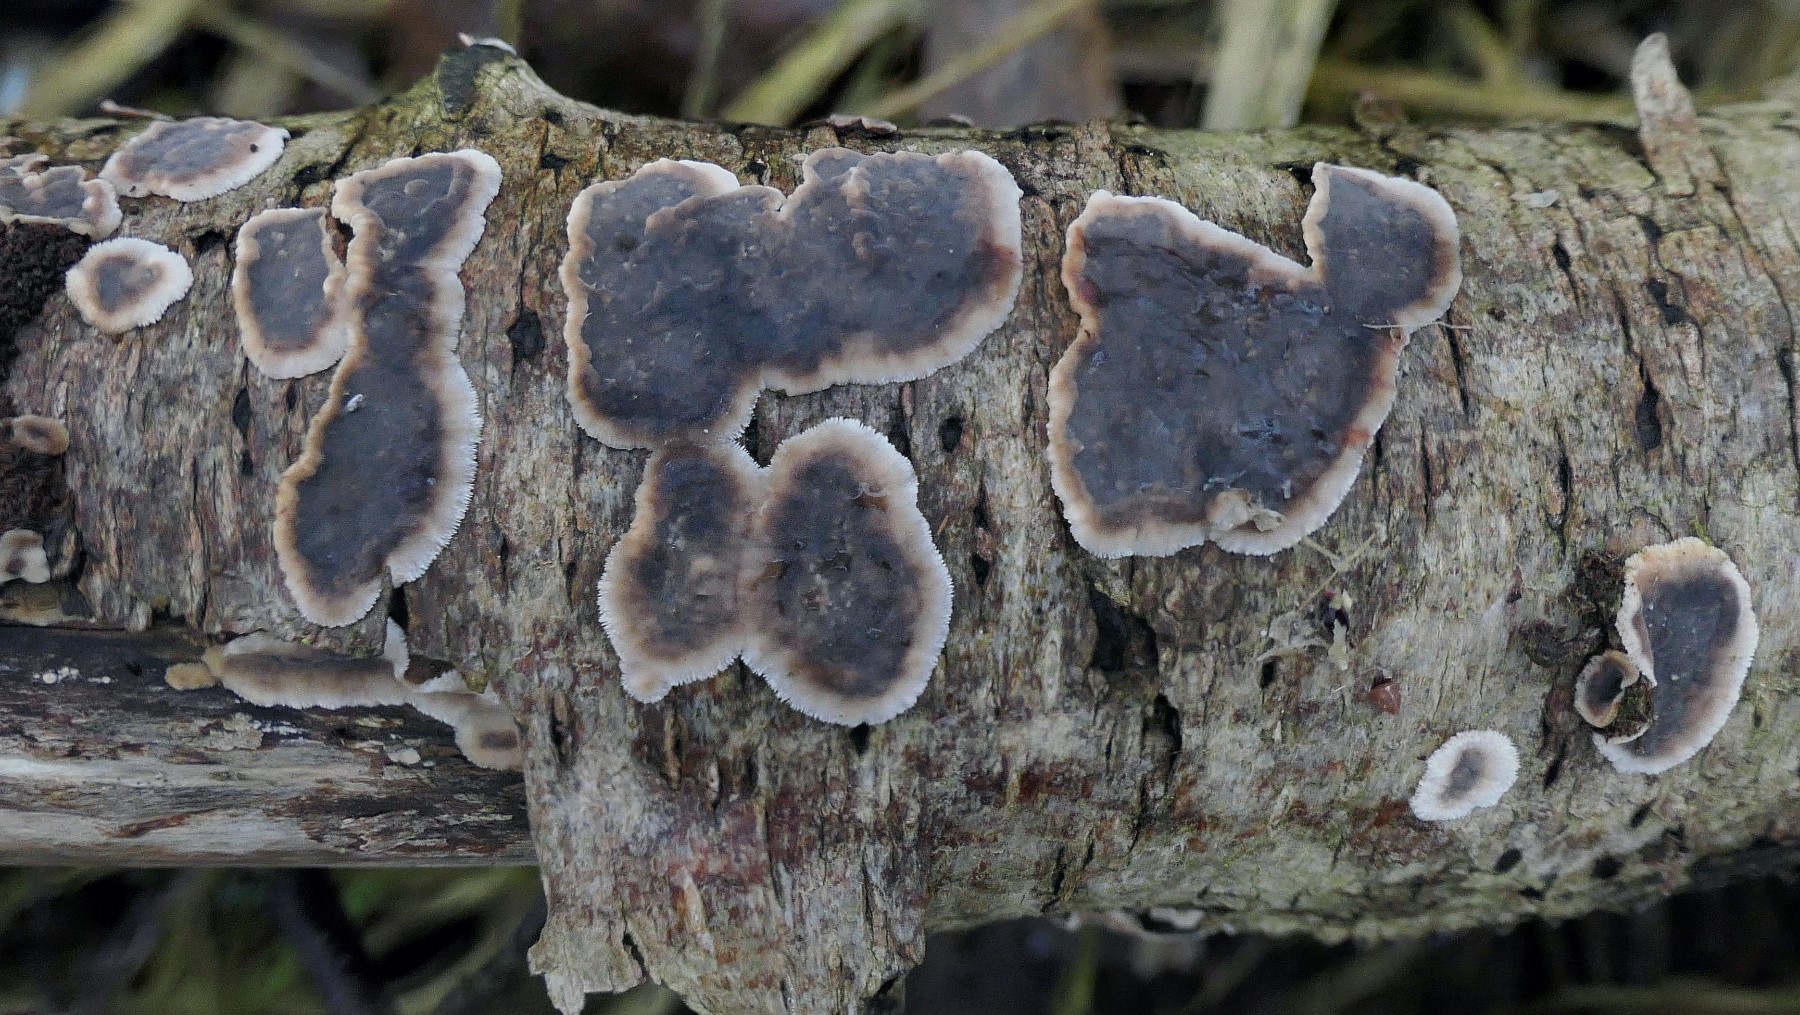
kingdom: Fungi
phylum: Basidiomycota
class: Agaricomycetes
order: Russulales
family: Stereaceae
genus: Stereum
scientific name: Stereum
